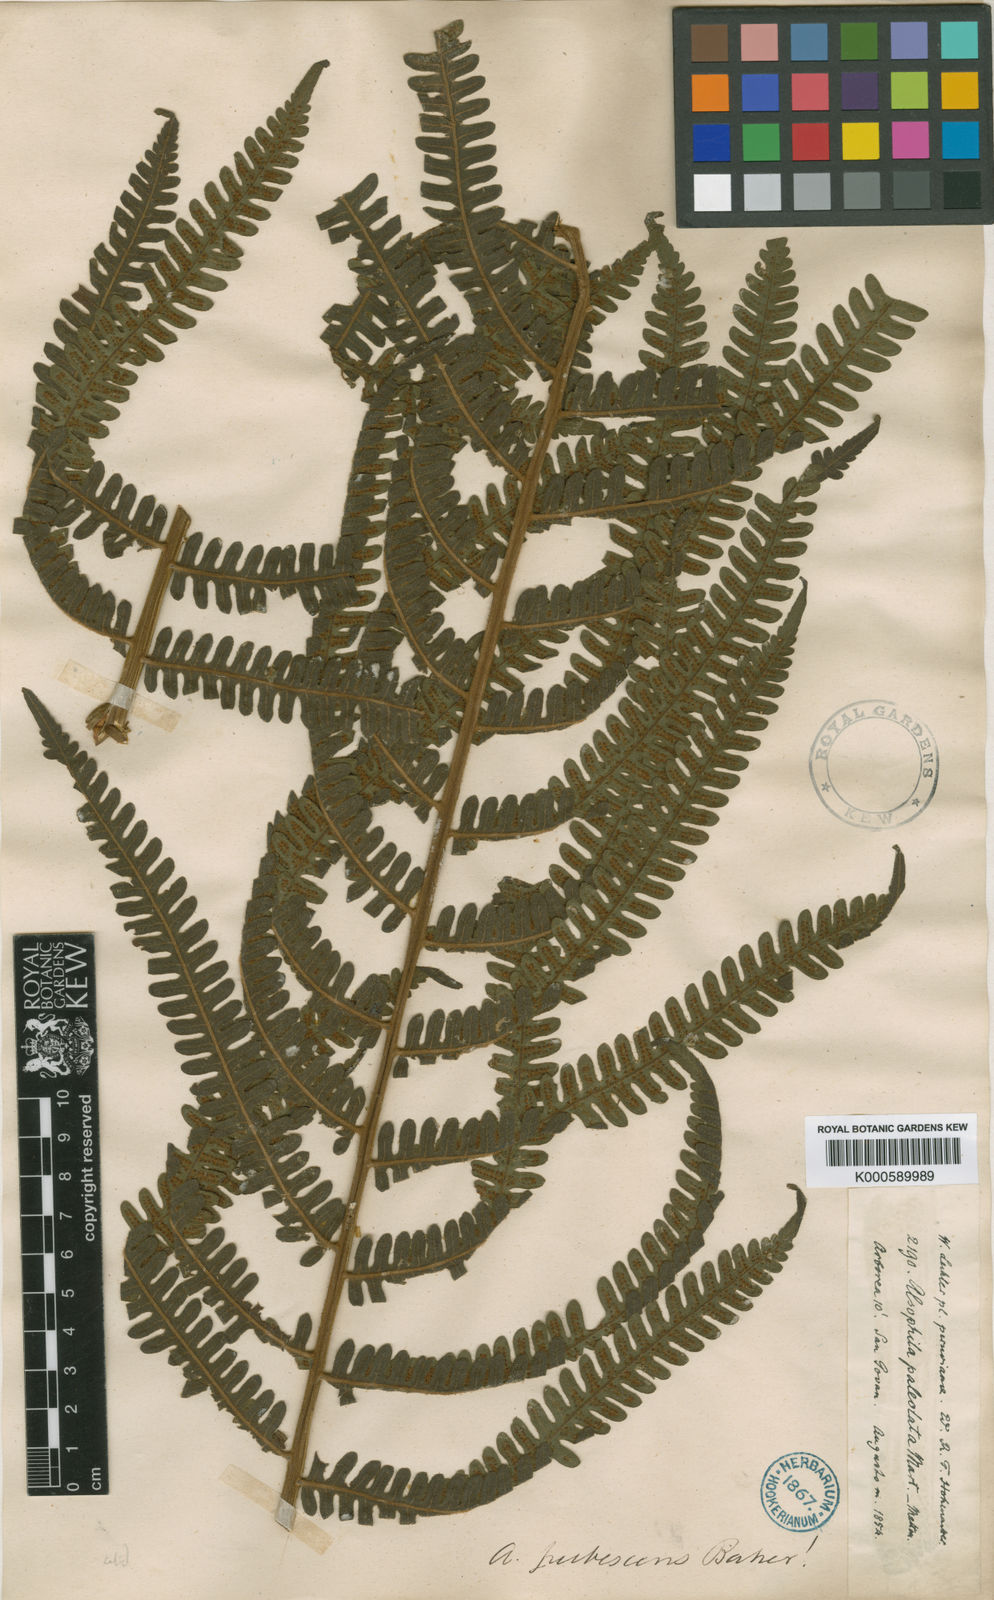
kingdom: Plantae
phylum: Tracheophyta
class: Polypodiopsida
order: Cyatheales
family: Cyatheaceae
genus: Alsophila
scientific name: Alsophila auneae
